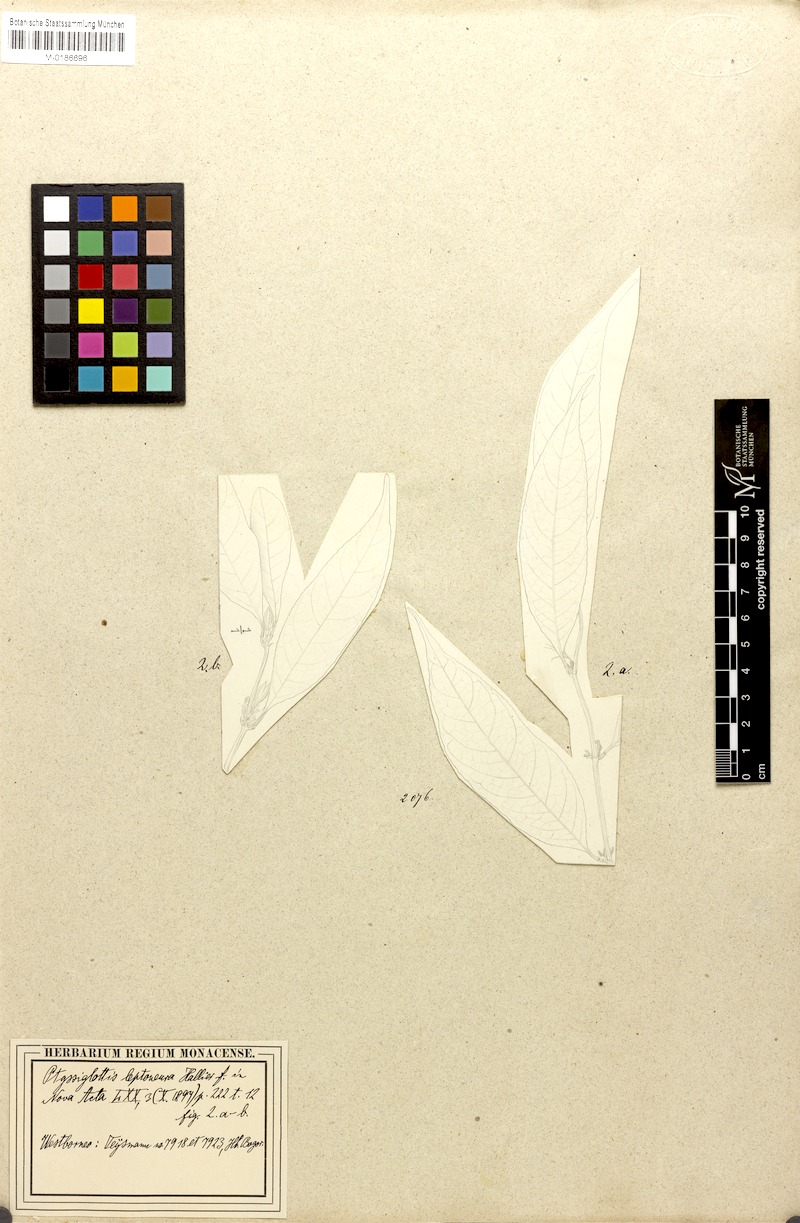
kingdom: Plantae
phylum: Tracheophyta
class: Magnoliopsida
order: Lamiales
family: Acanthaceae
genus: Ptyssiglottis
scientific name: Ptyssiglottis lanceolata
